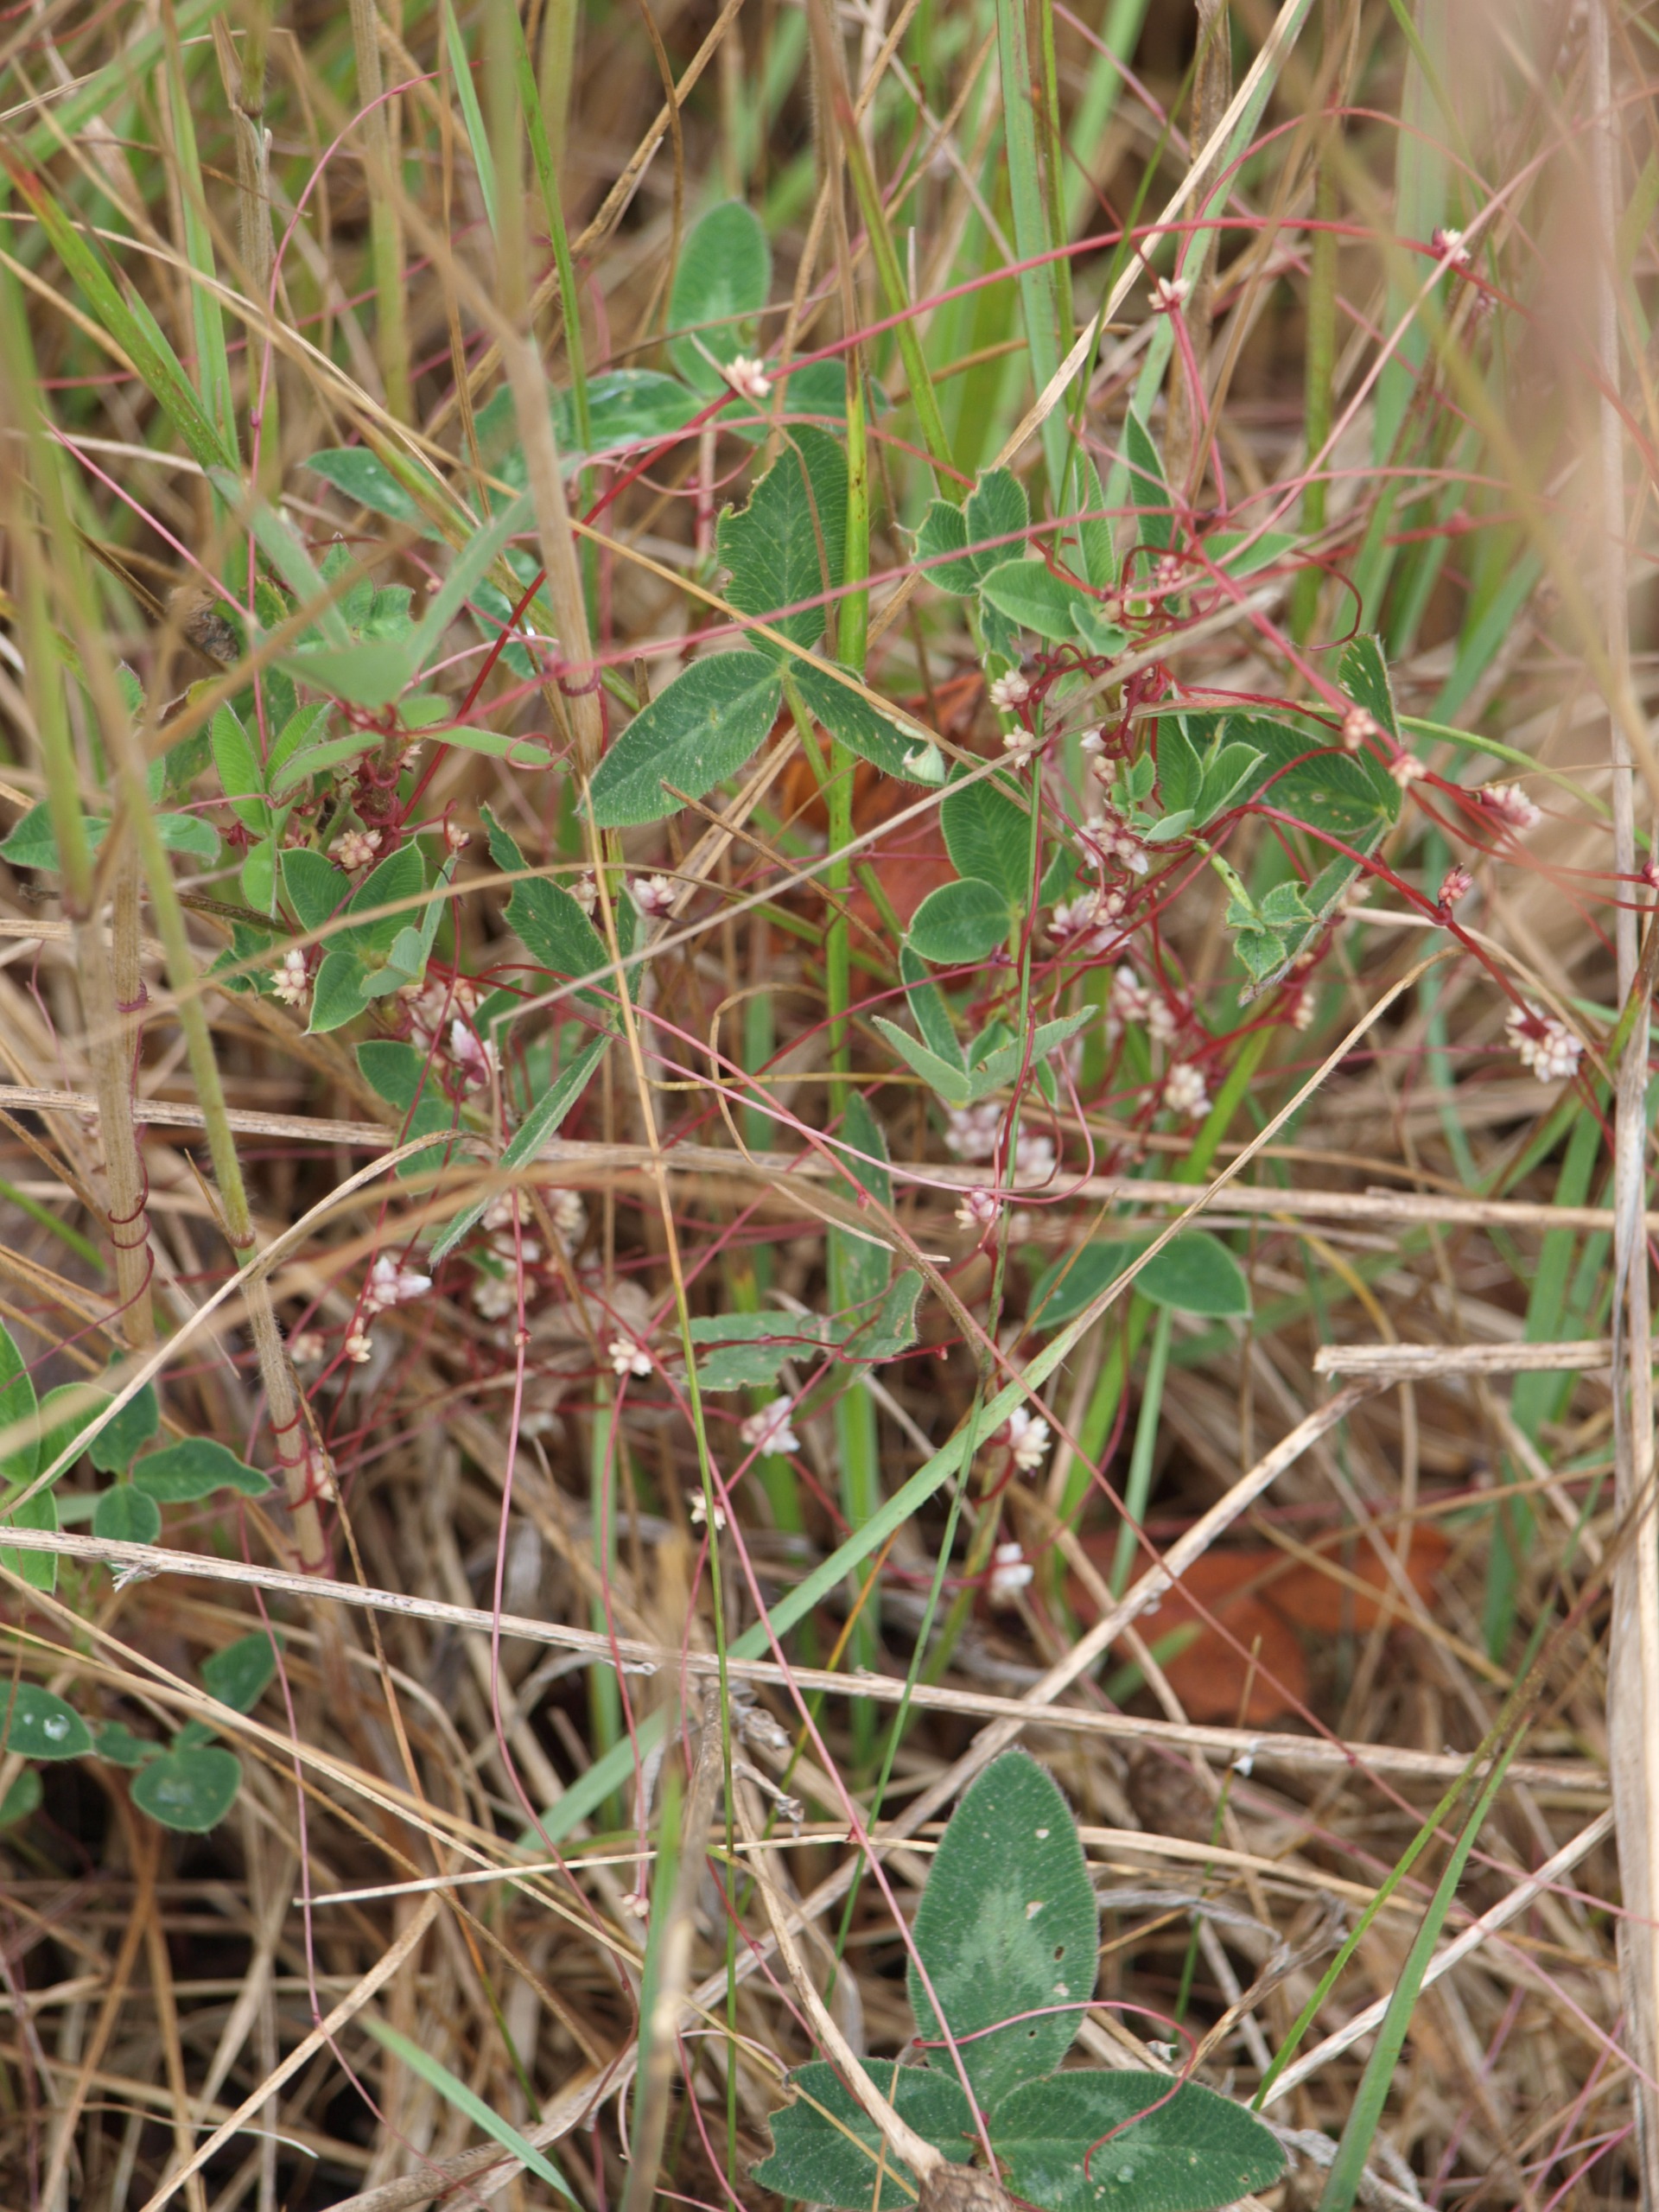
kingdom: Plantae
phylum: Tracheophyta
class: Magnoliopsida
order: Solanales
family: Convolvulaceae
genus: Cuscuta
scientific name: Cuscuta epithymum
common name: Lyng-silke
